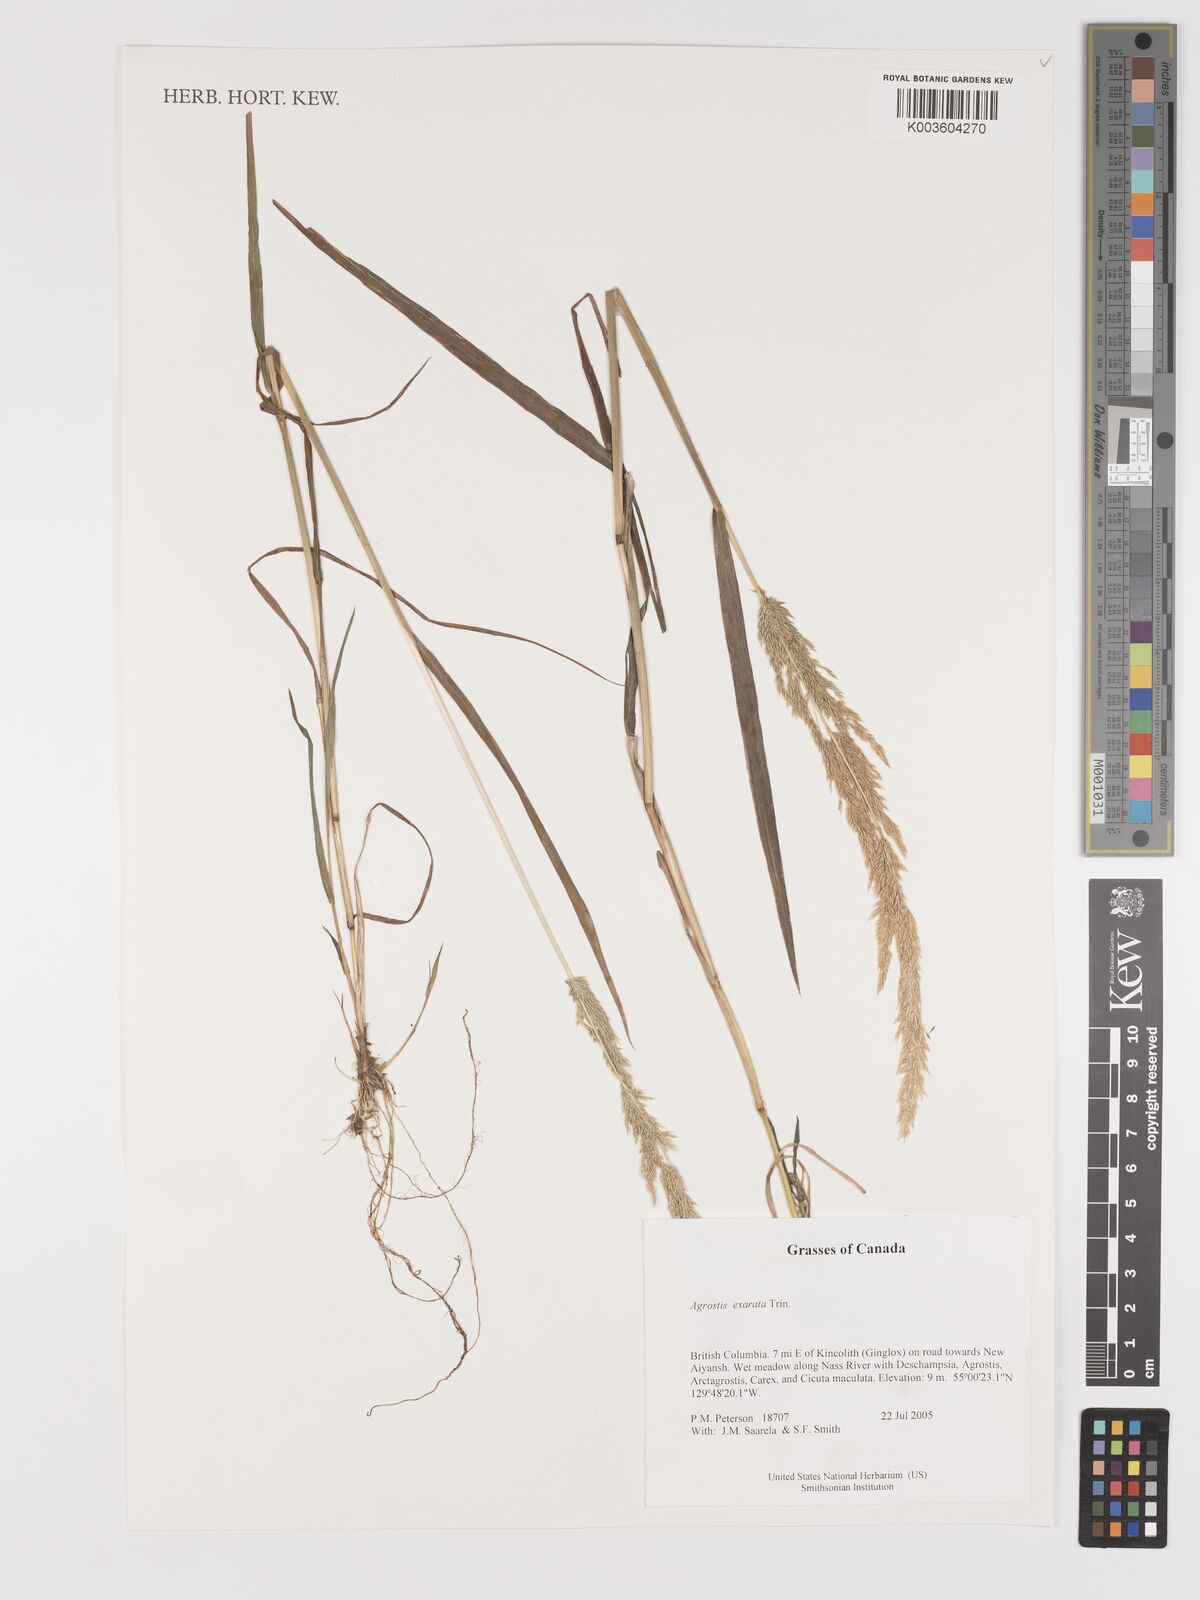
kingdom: Plantae
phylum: Tracheophyta
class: Liliopsida
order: Poales
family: Poaceae
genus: Agrostis
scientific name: Agrostis exarata
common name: Spike bent
